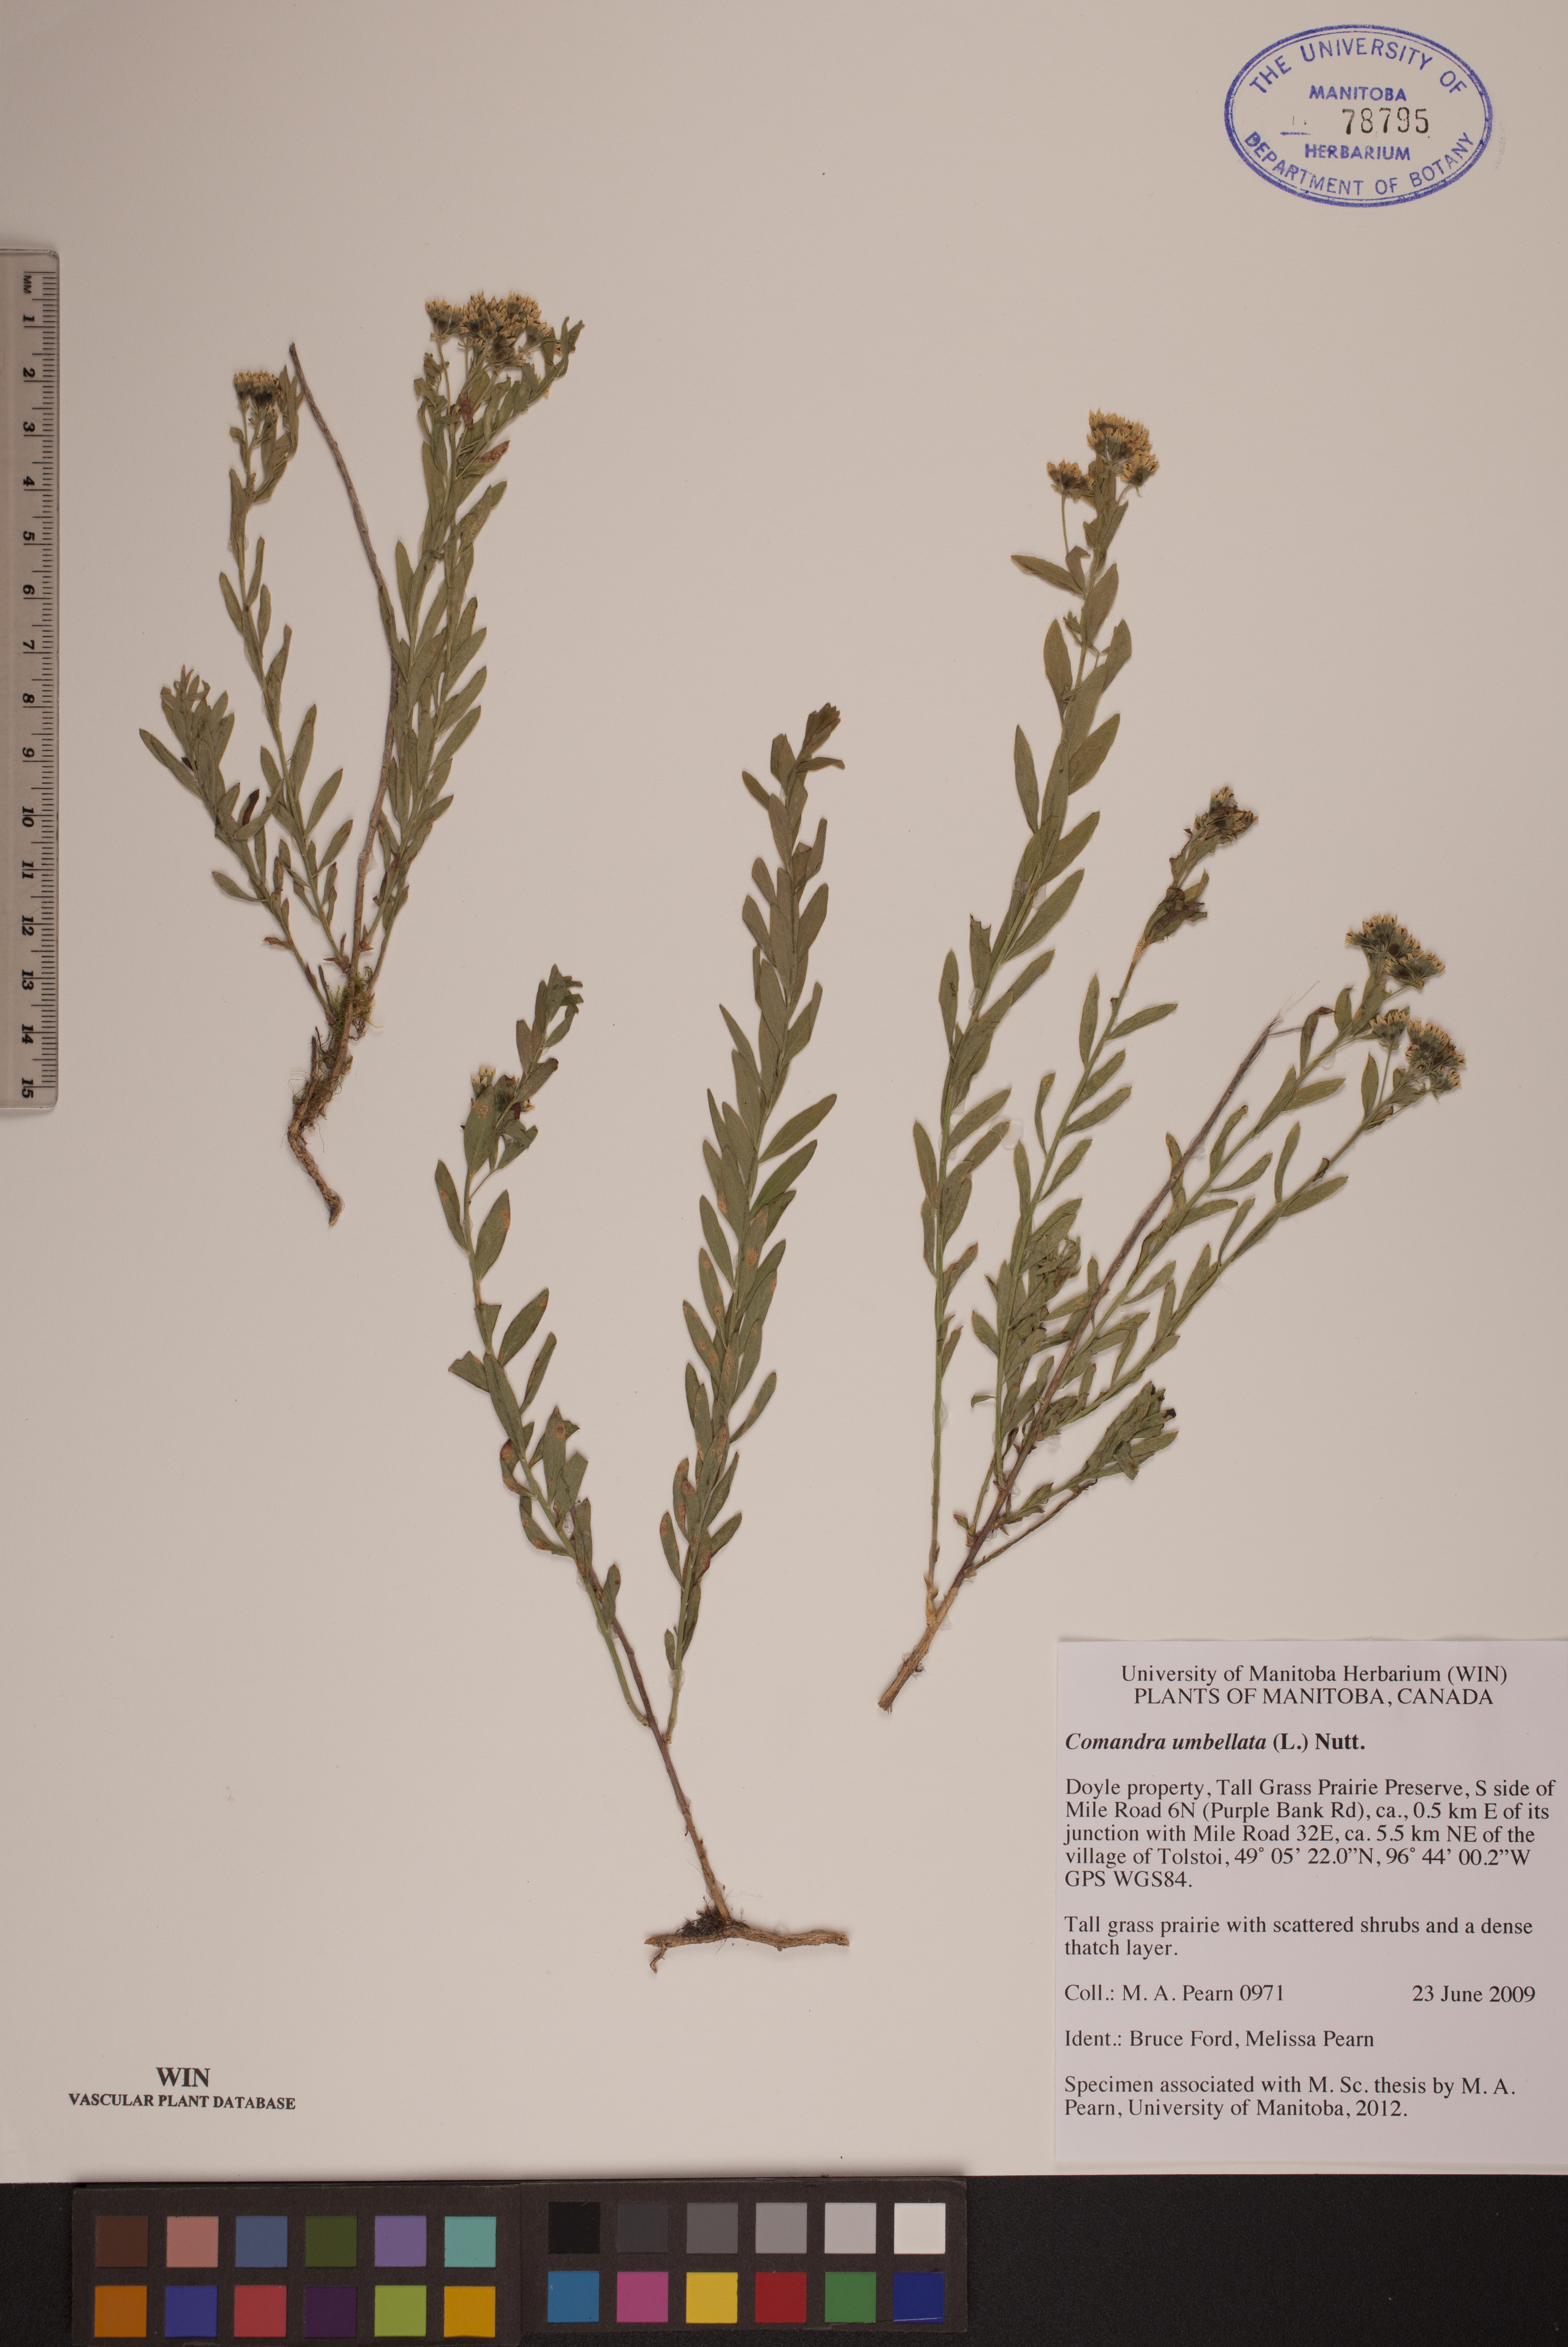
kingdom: Plantae
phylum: Tracheophyta
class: Magnoliopsida
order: Santalales
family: Comandraceae
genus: Comandra
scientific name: Comandra umbellata
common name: Bastard toadflax
